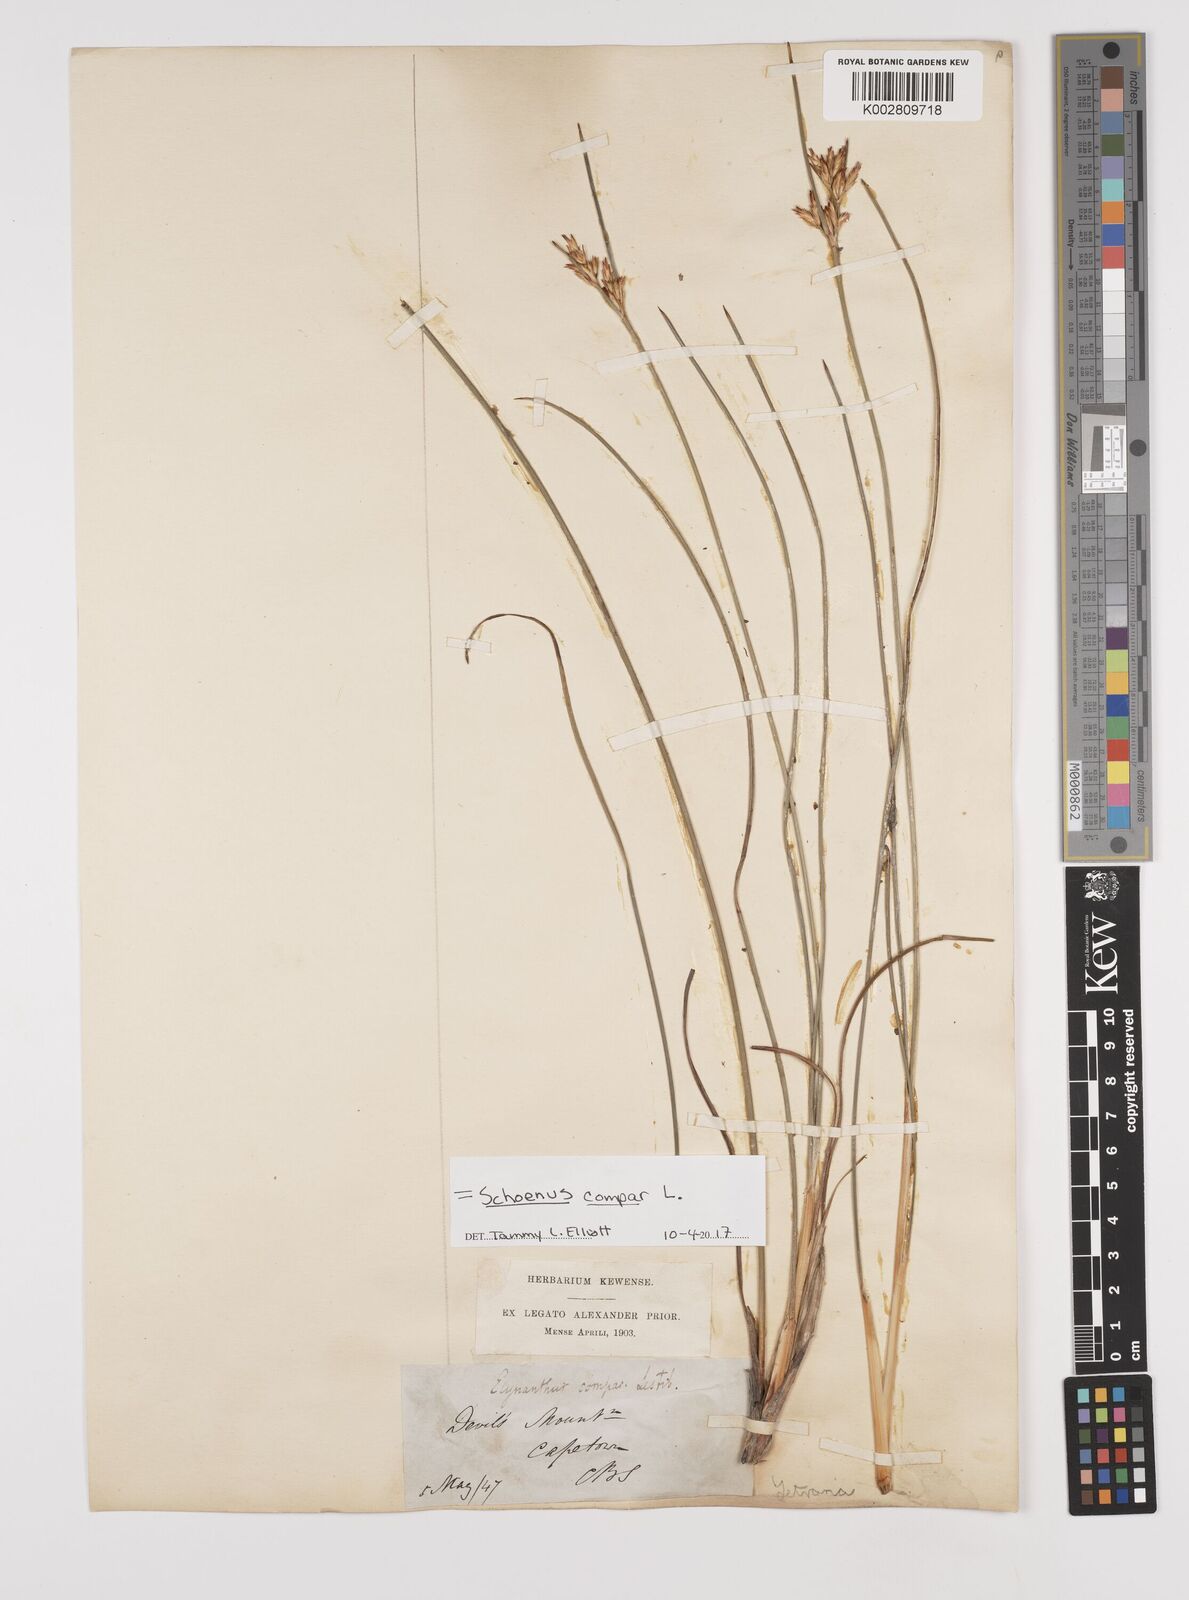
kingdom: Plantae
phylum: Tracheophyta
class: Liliopsida
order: Poales
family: Cyperaceae
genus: Schoenus
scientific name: Schoenus compar
